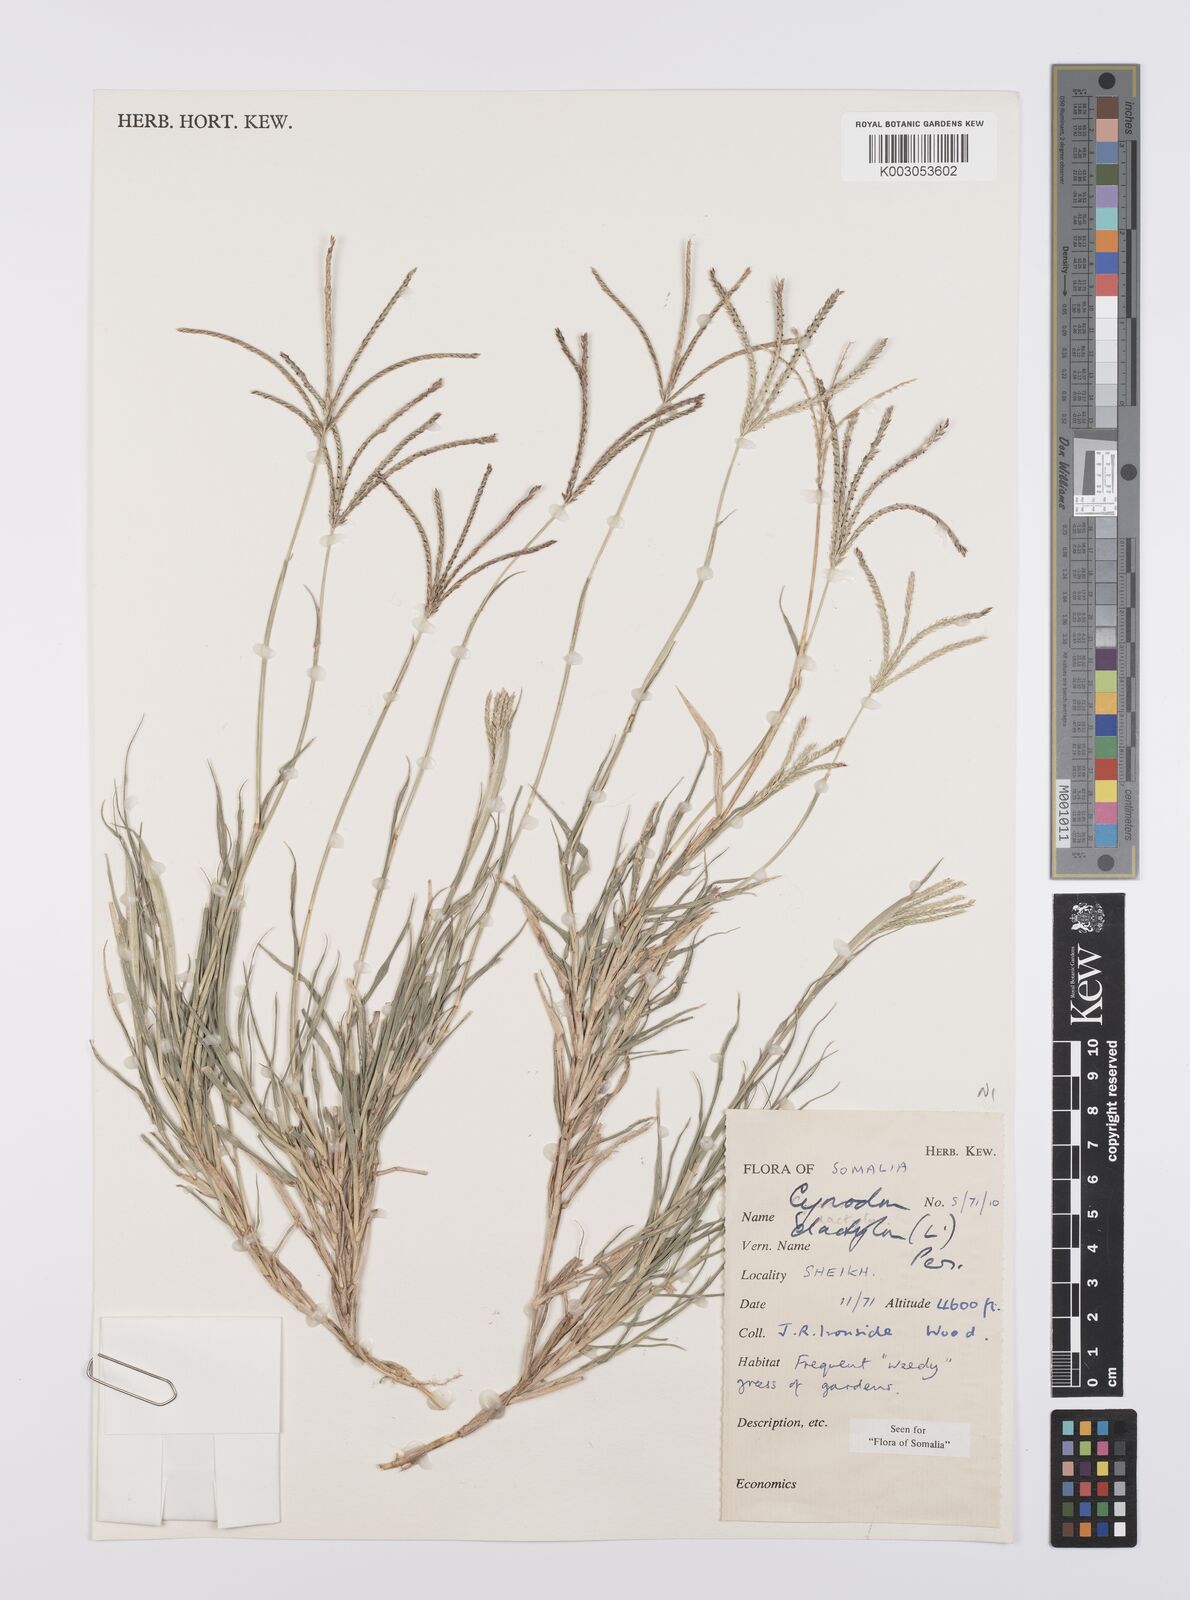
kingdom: Plantae
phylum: Tracheophyta
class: Liliopsida
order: Poales
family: Poaceae
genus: Cynodon
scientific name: Cynodon dactylon
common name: Bermuda grass
